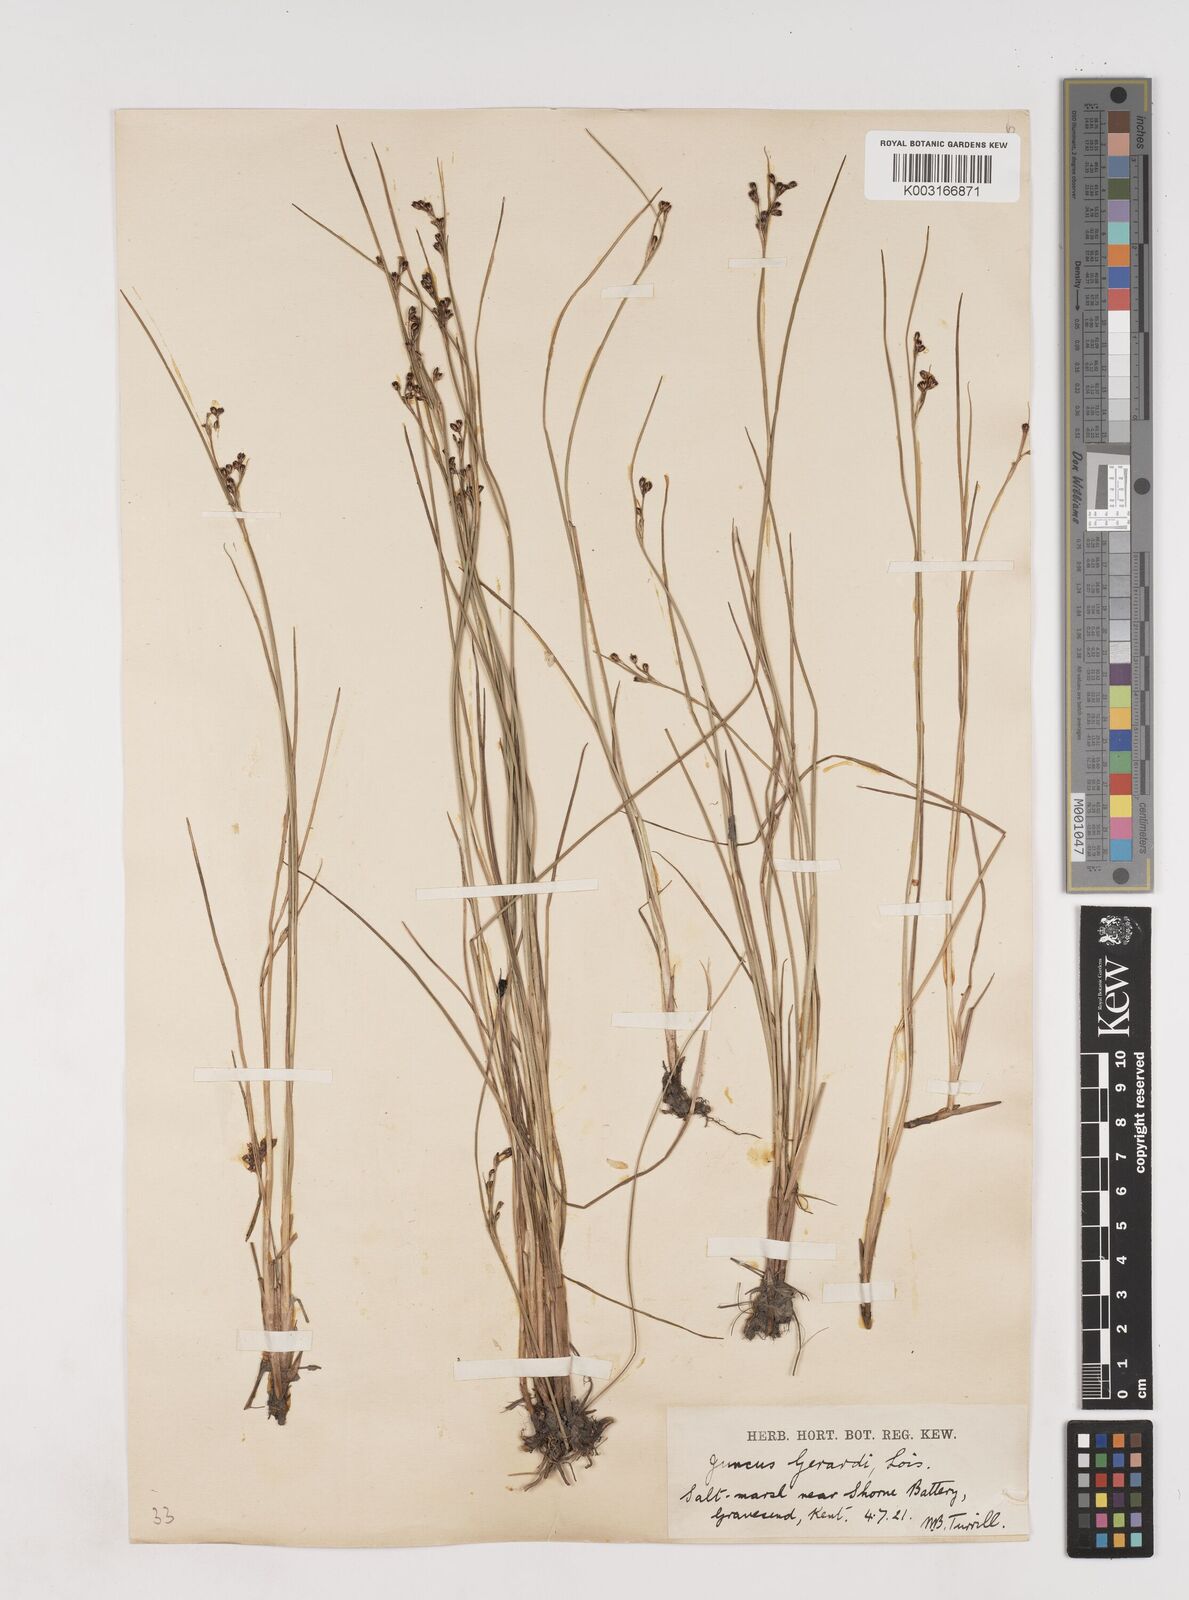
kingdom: Plantae
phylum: Tracheophyta
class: Liliopsida
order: Poales
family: Juncaceae
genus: Juncus
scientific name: Juncus gerardi
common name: Saltmarsh rush
